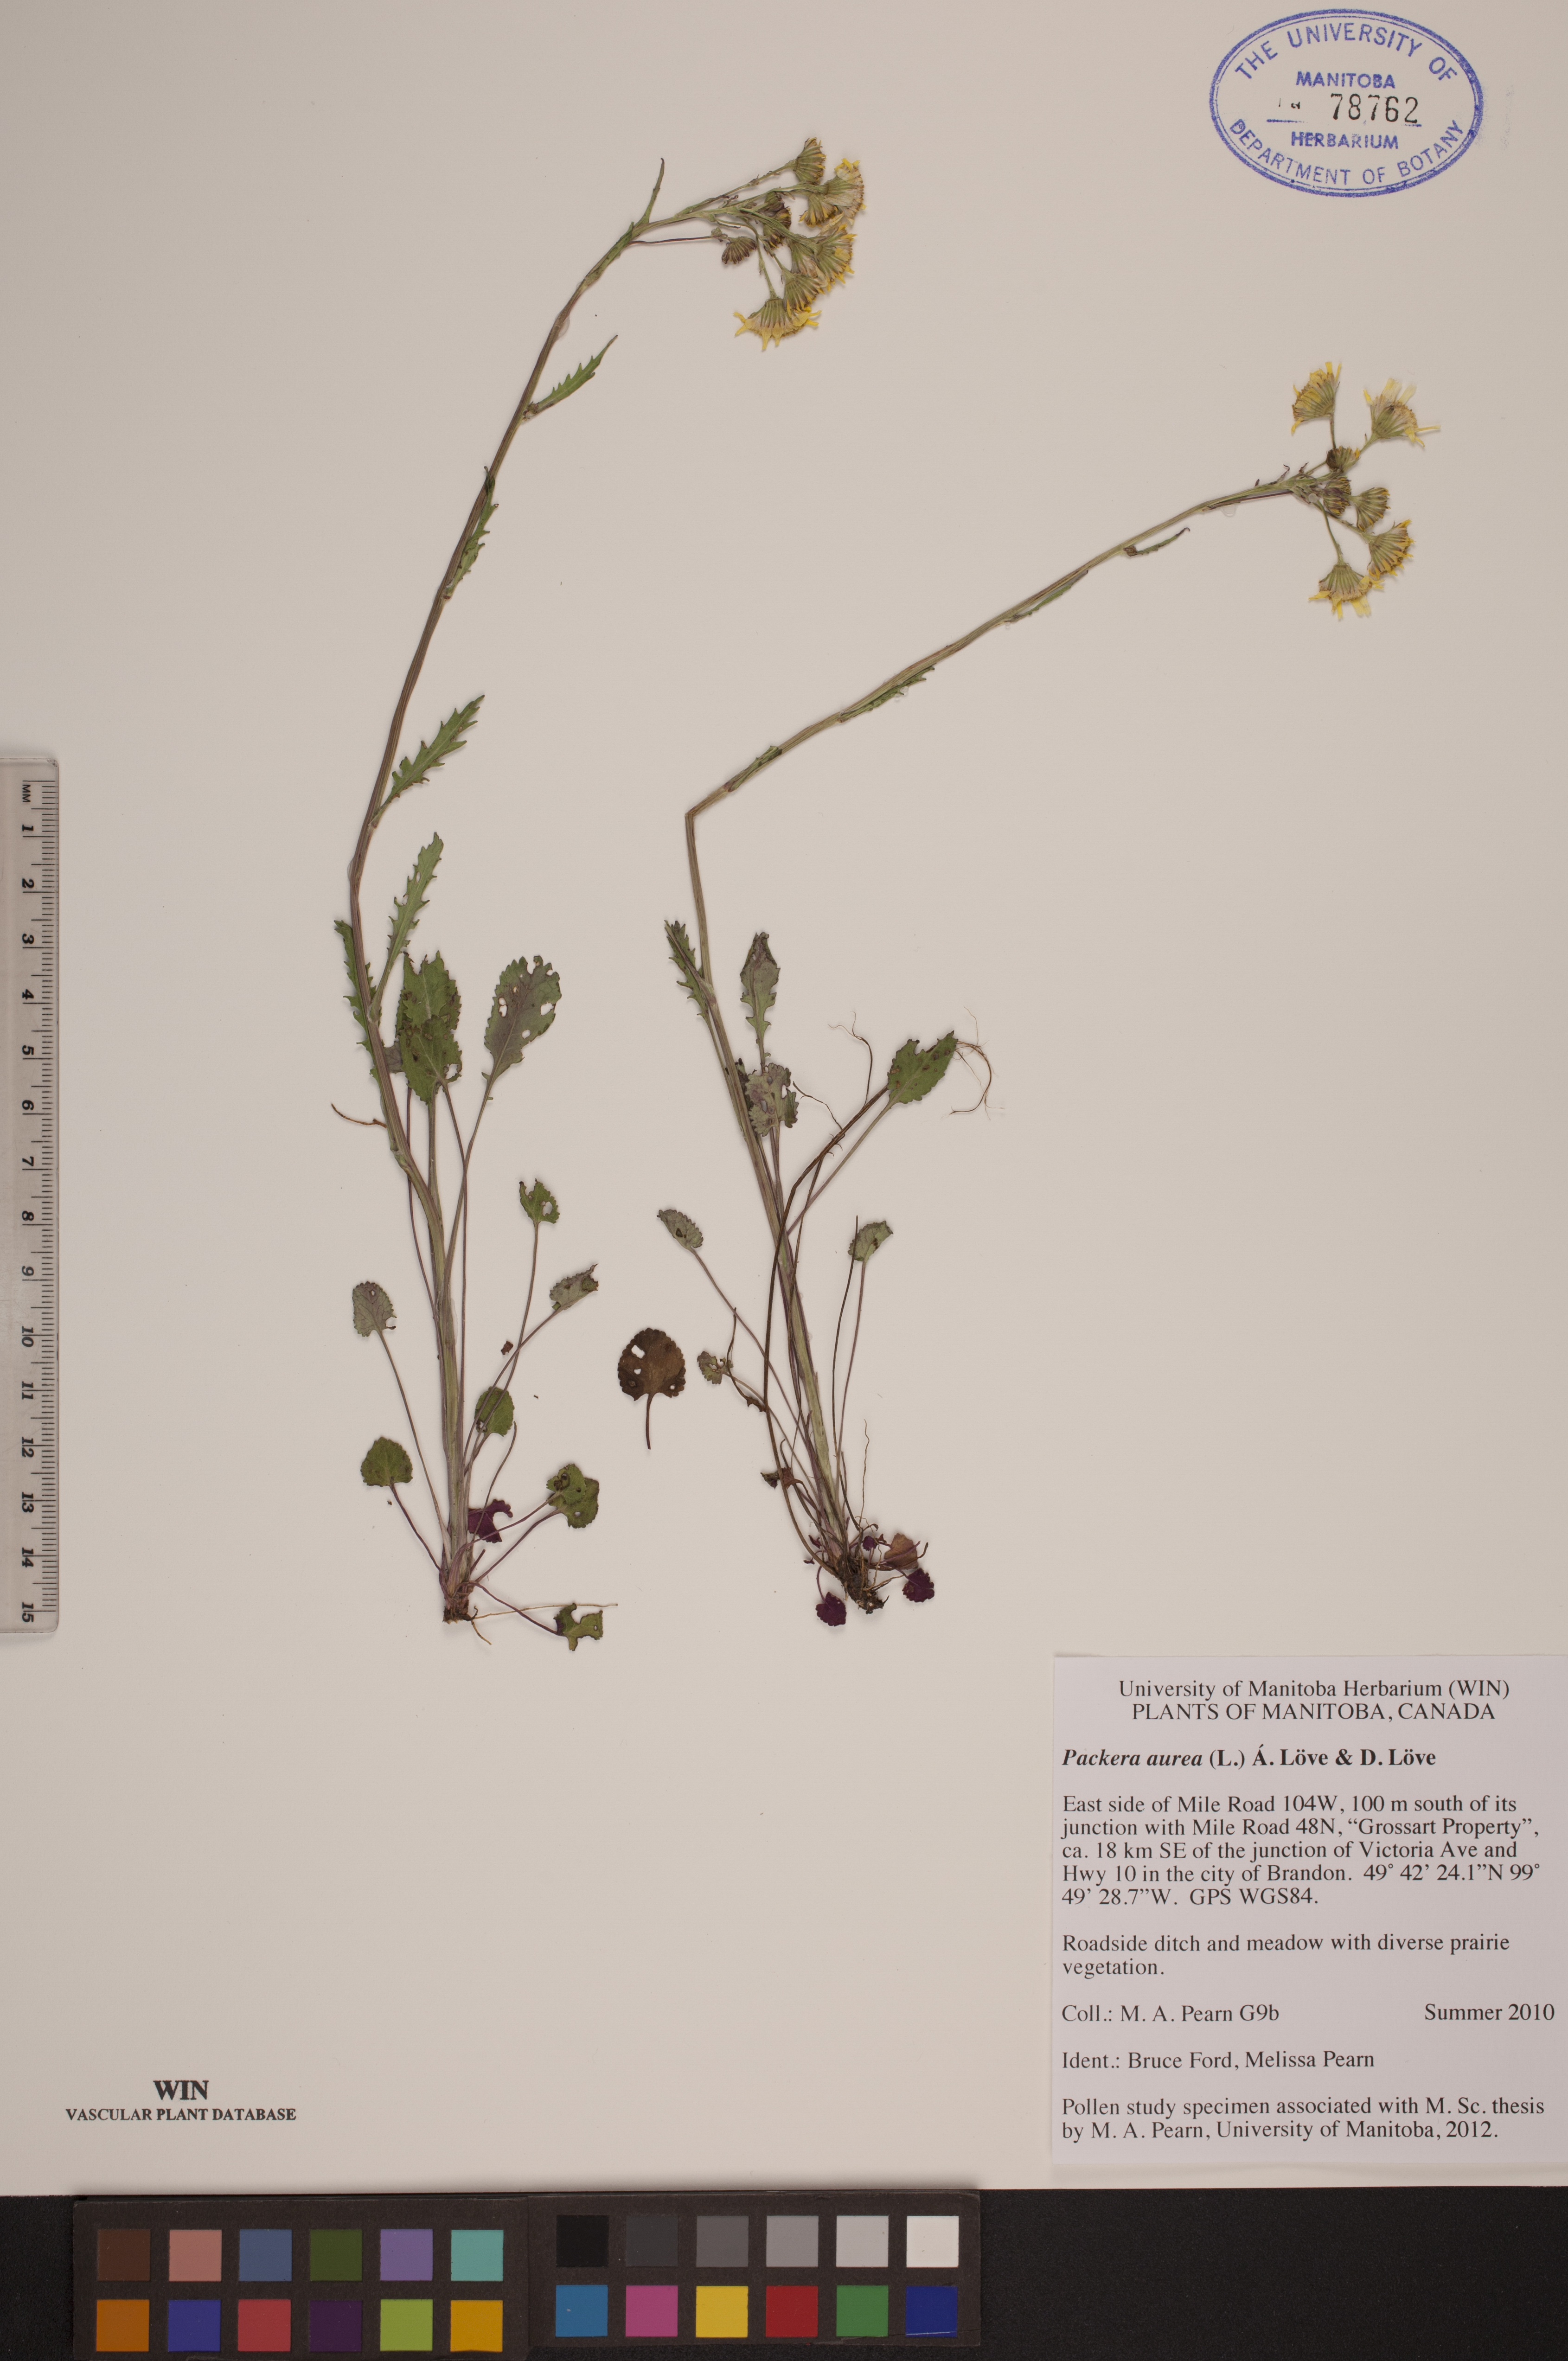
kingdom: Plantae
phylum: Tracheophyta
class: Magnoliopsida
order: Asterales
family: Asteraceae
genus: Packera
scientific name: Packera aurea
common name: Golden groundsel
